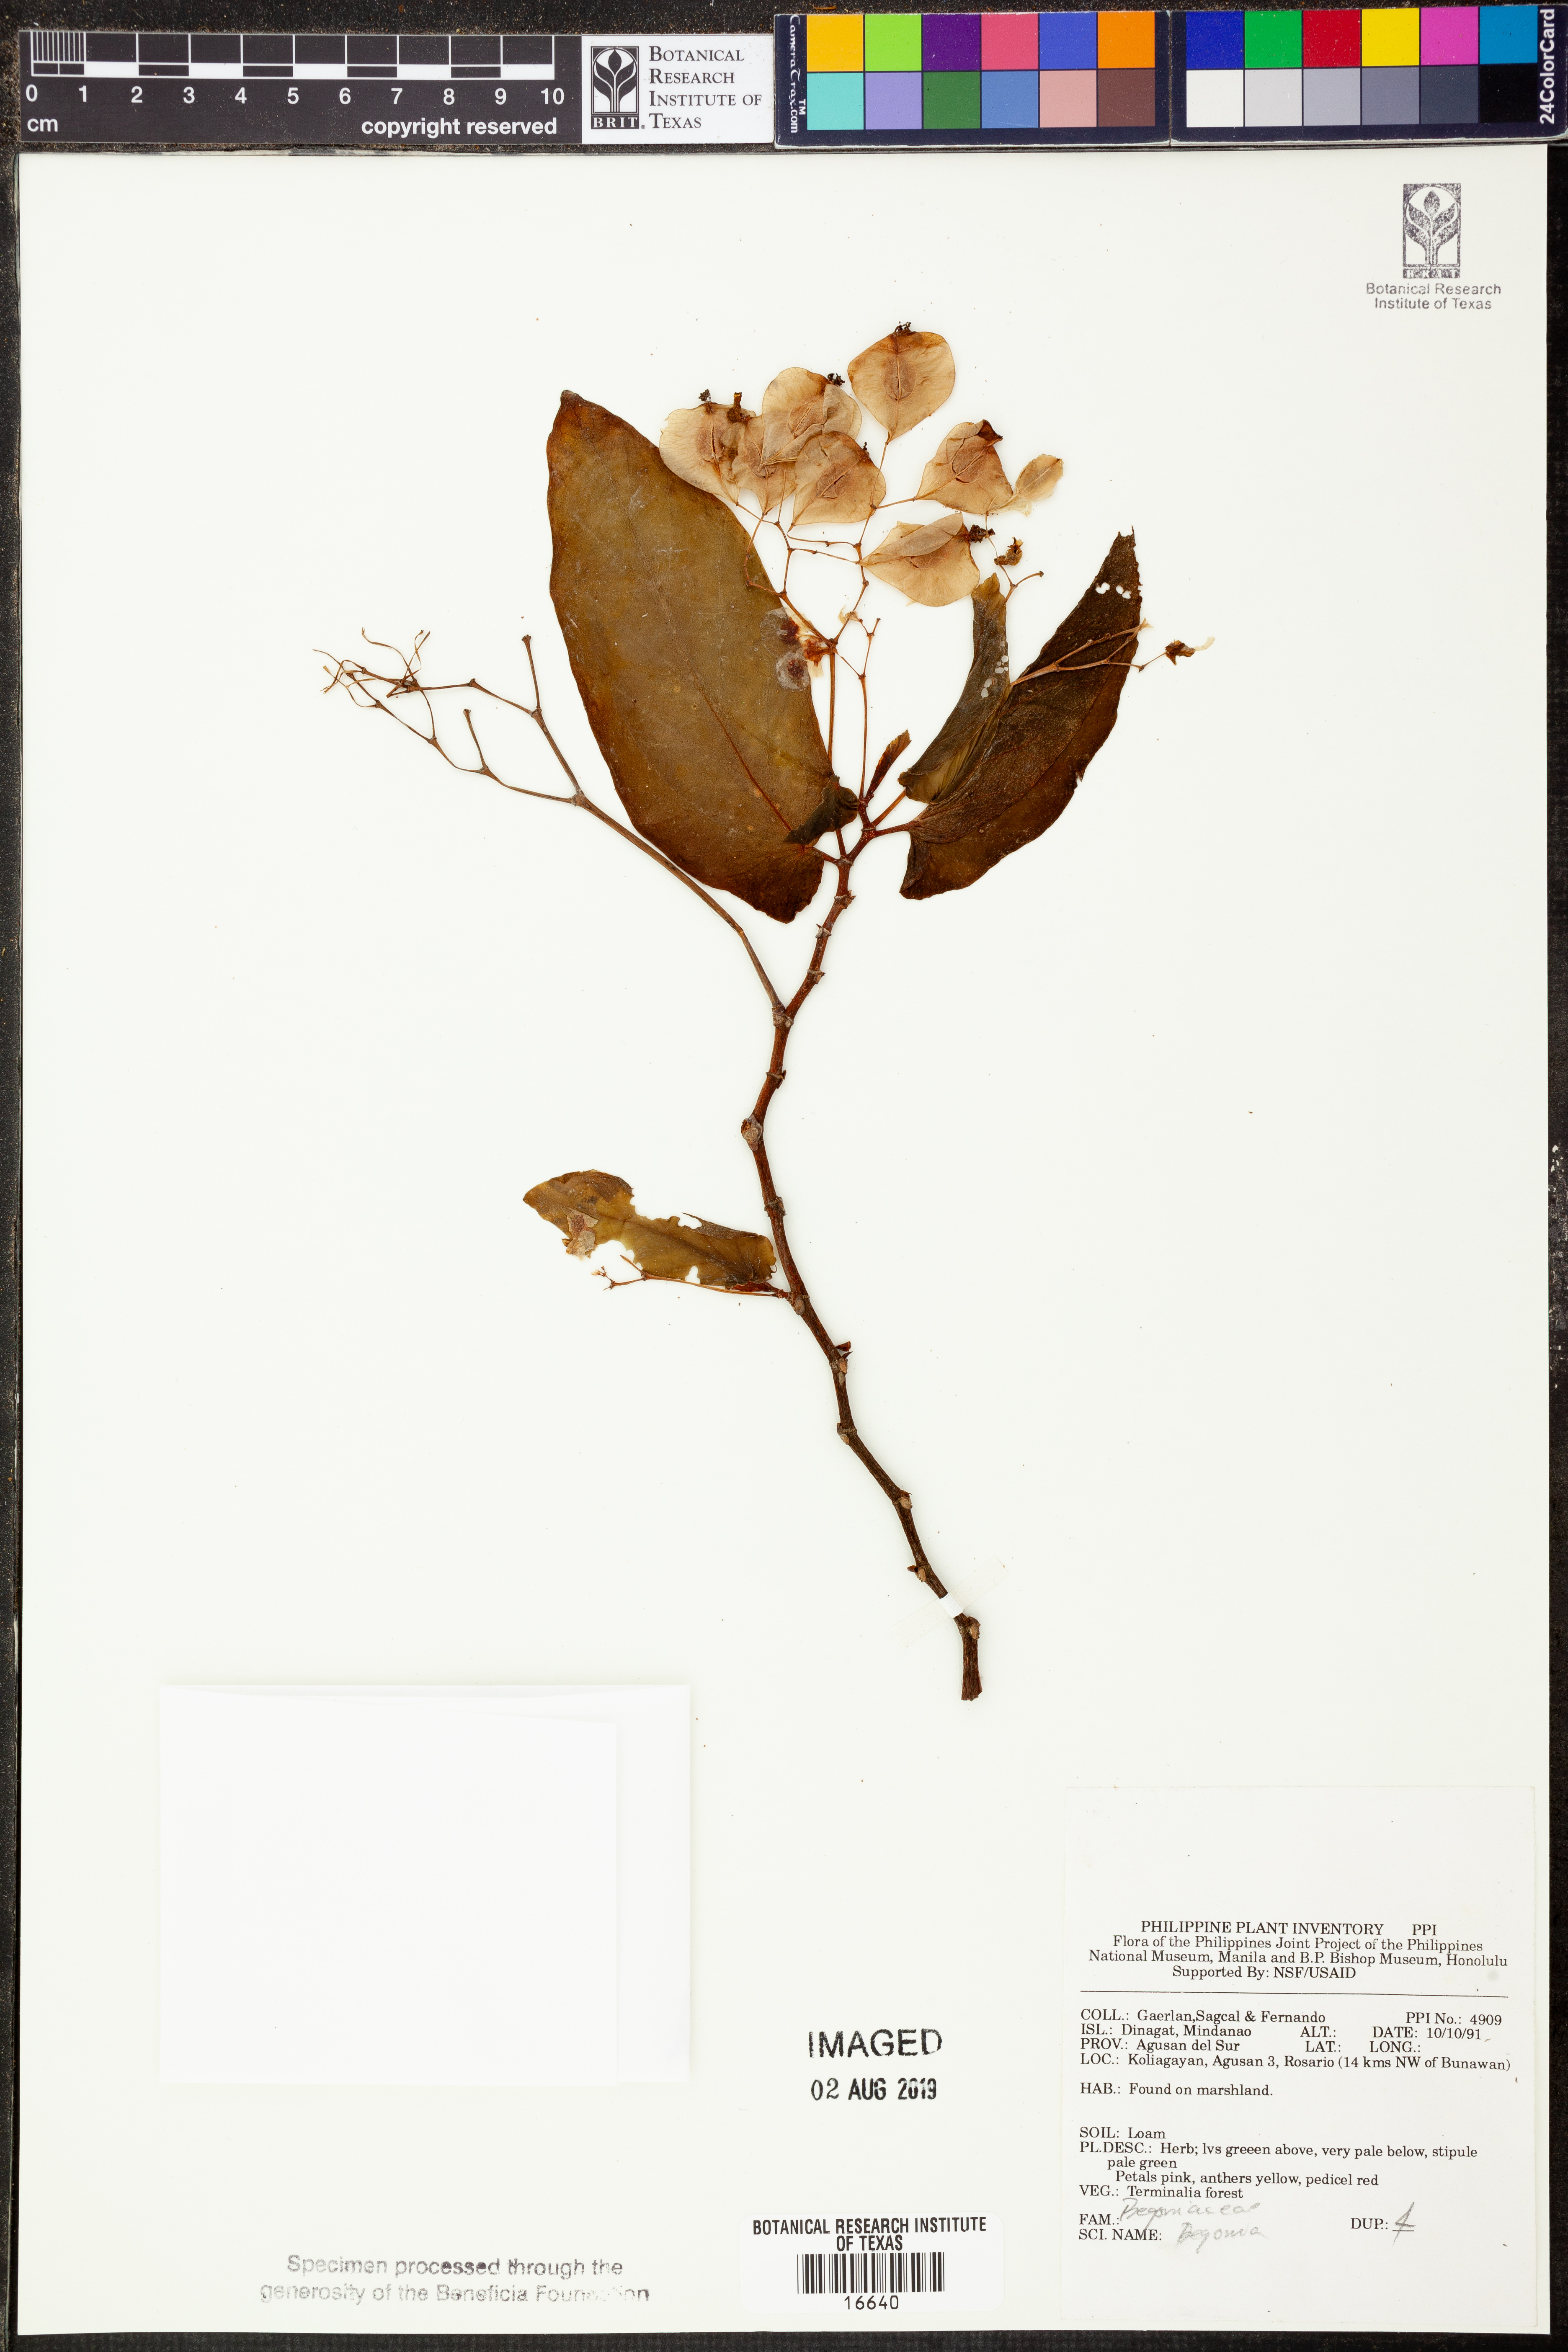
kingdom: Plantae
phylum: Tracheophyta
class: Magnoliopsida
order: Cucurbitales
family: Begoniaceae
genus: Begonia
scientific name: Begonia
